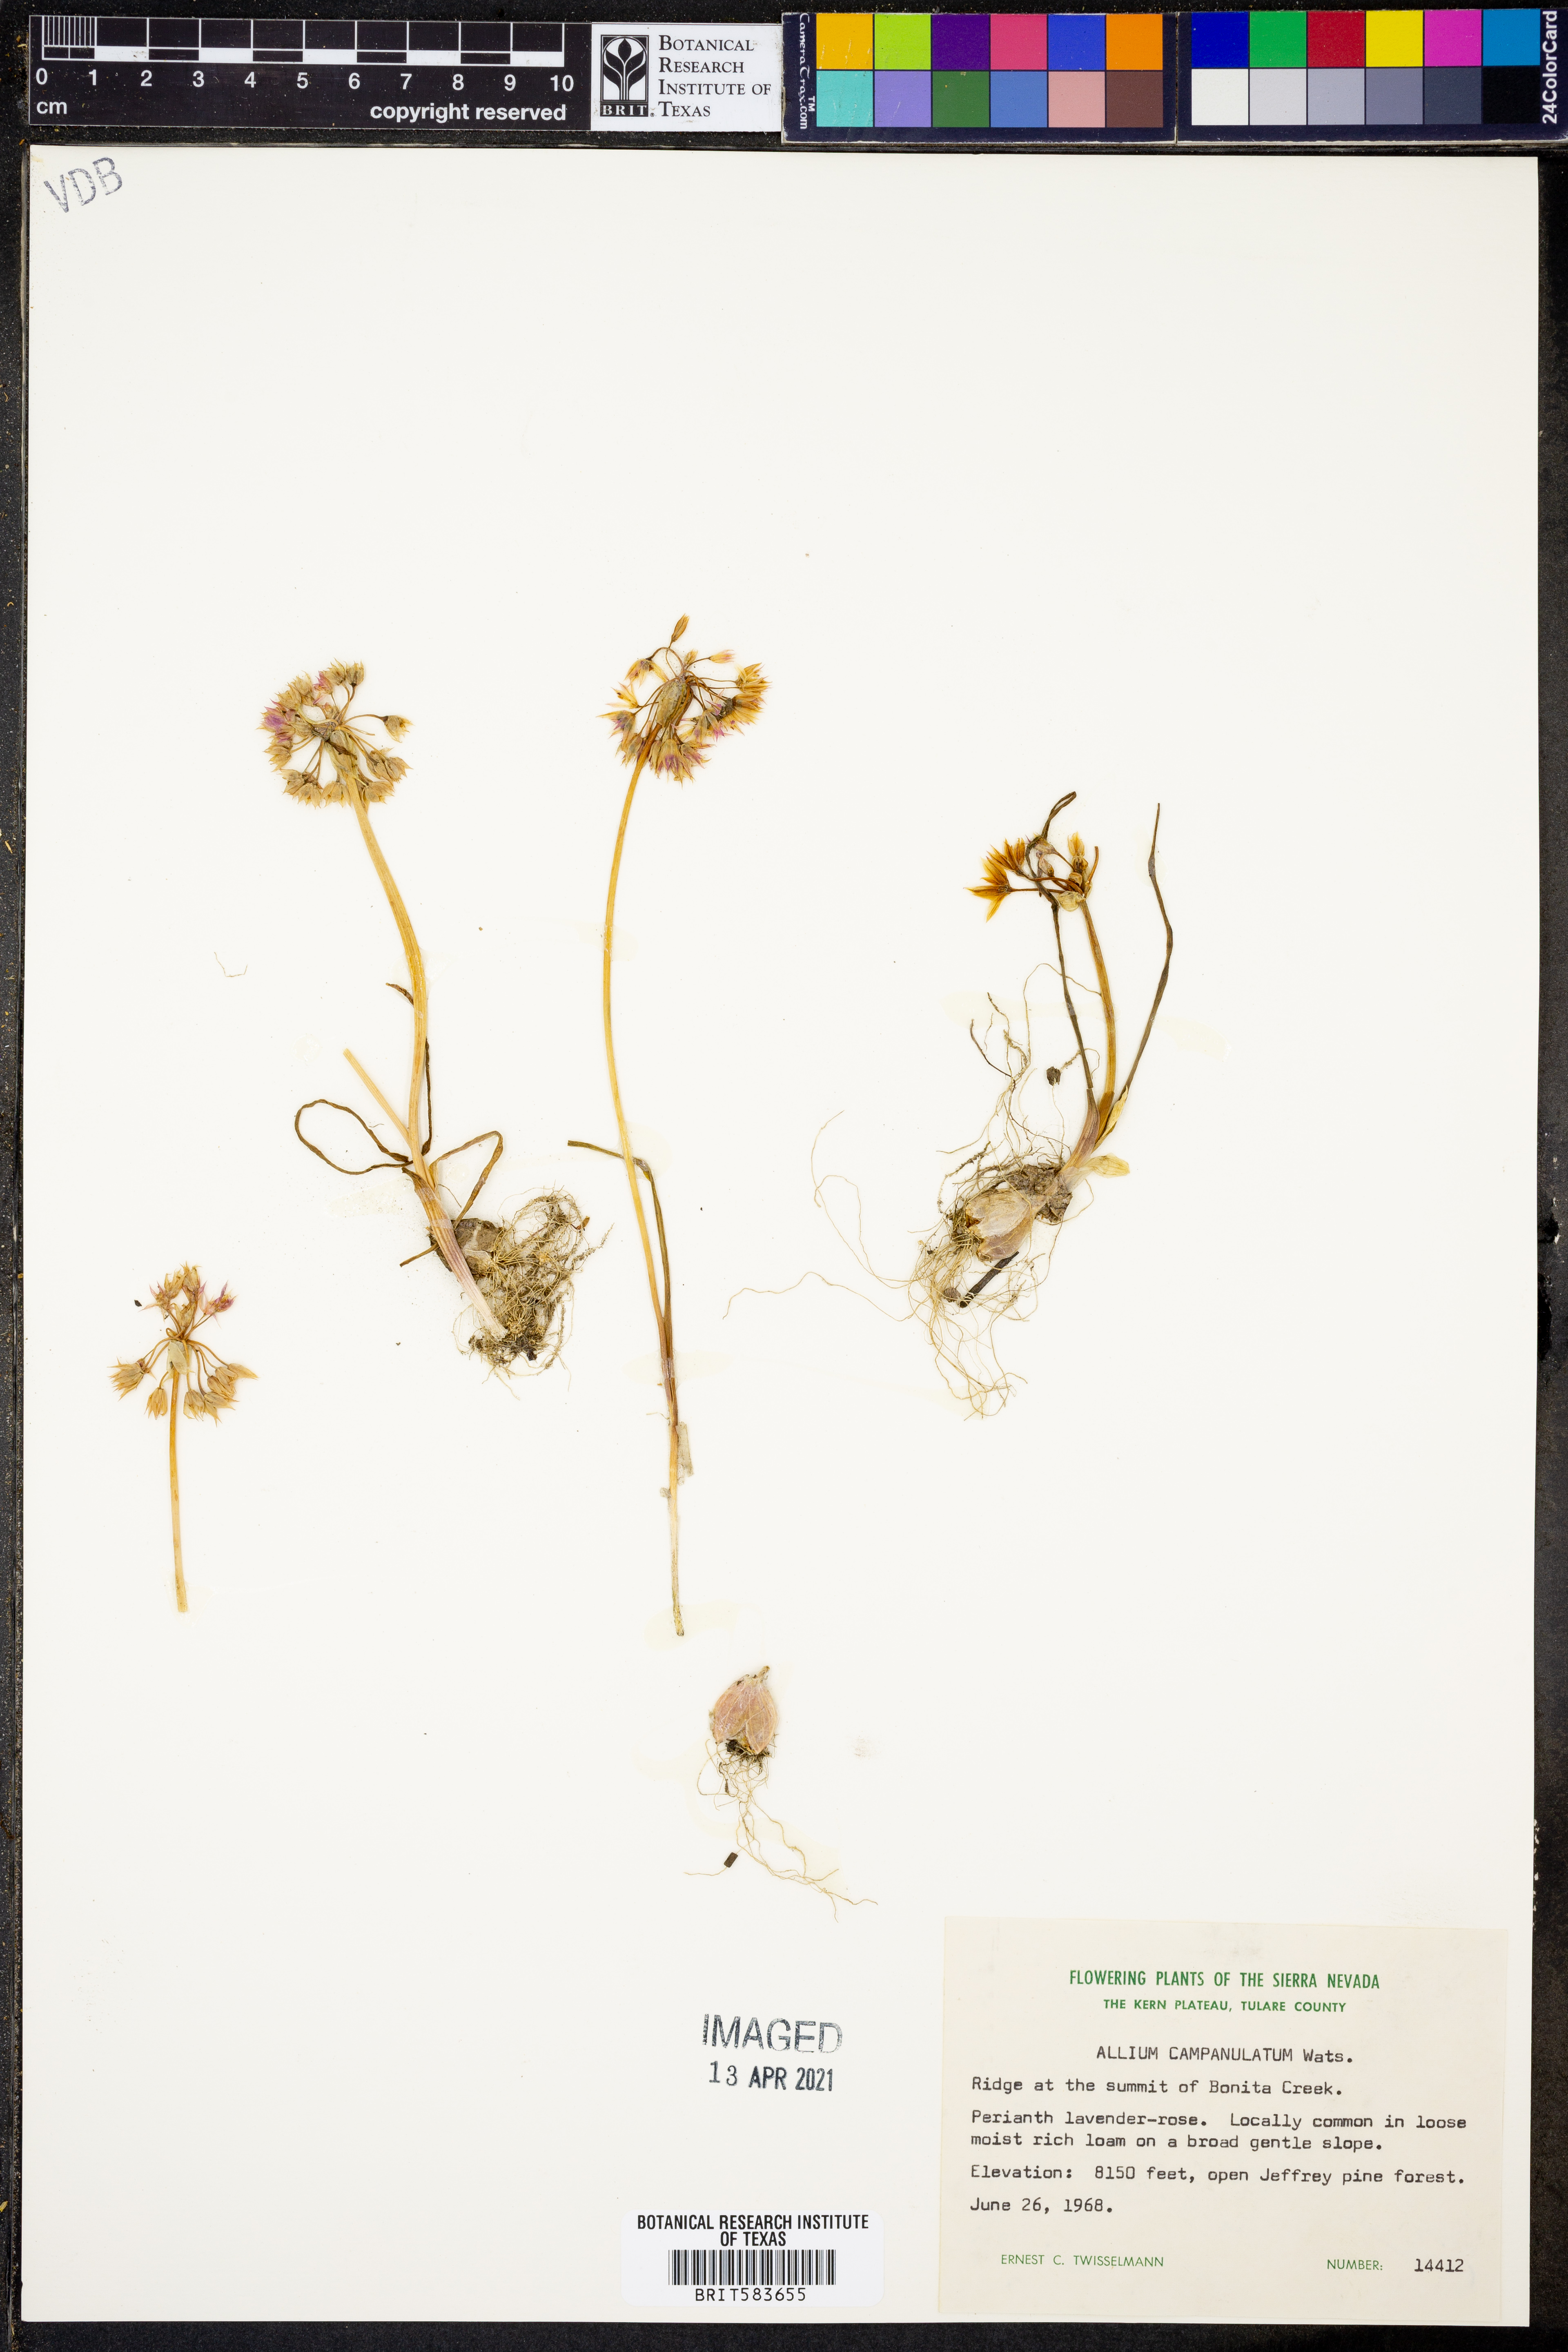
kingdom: Plantae
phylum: Tracheophyta
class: Liliopsida
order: Asparagales
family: Amaryllidaceae
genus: Allium
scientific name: Allium campanulatum
